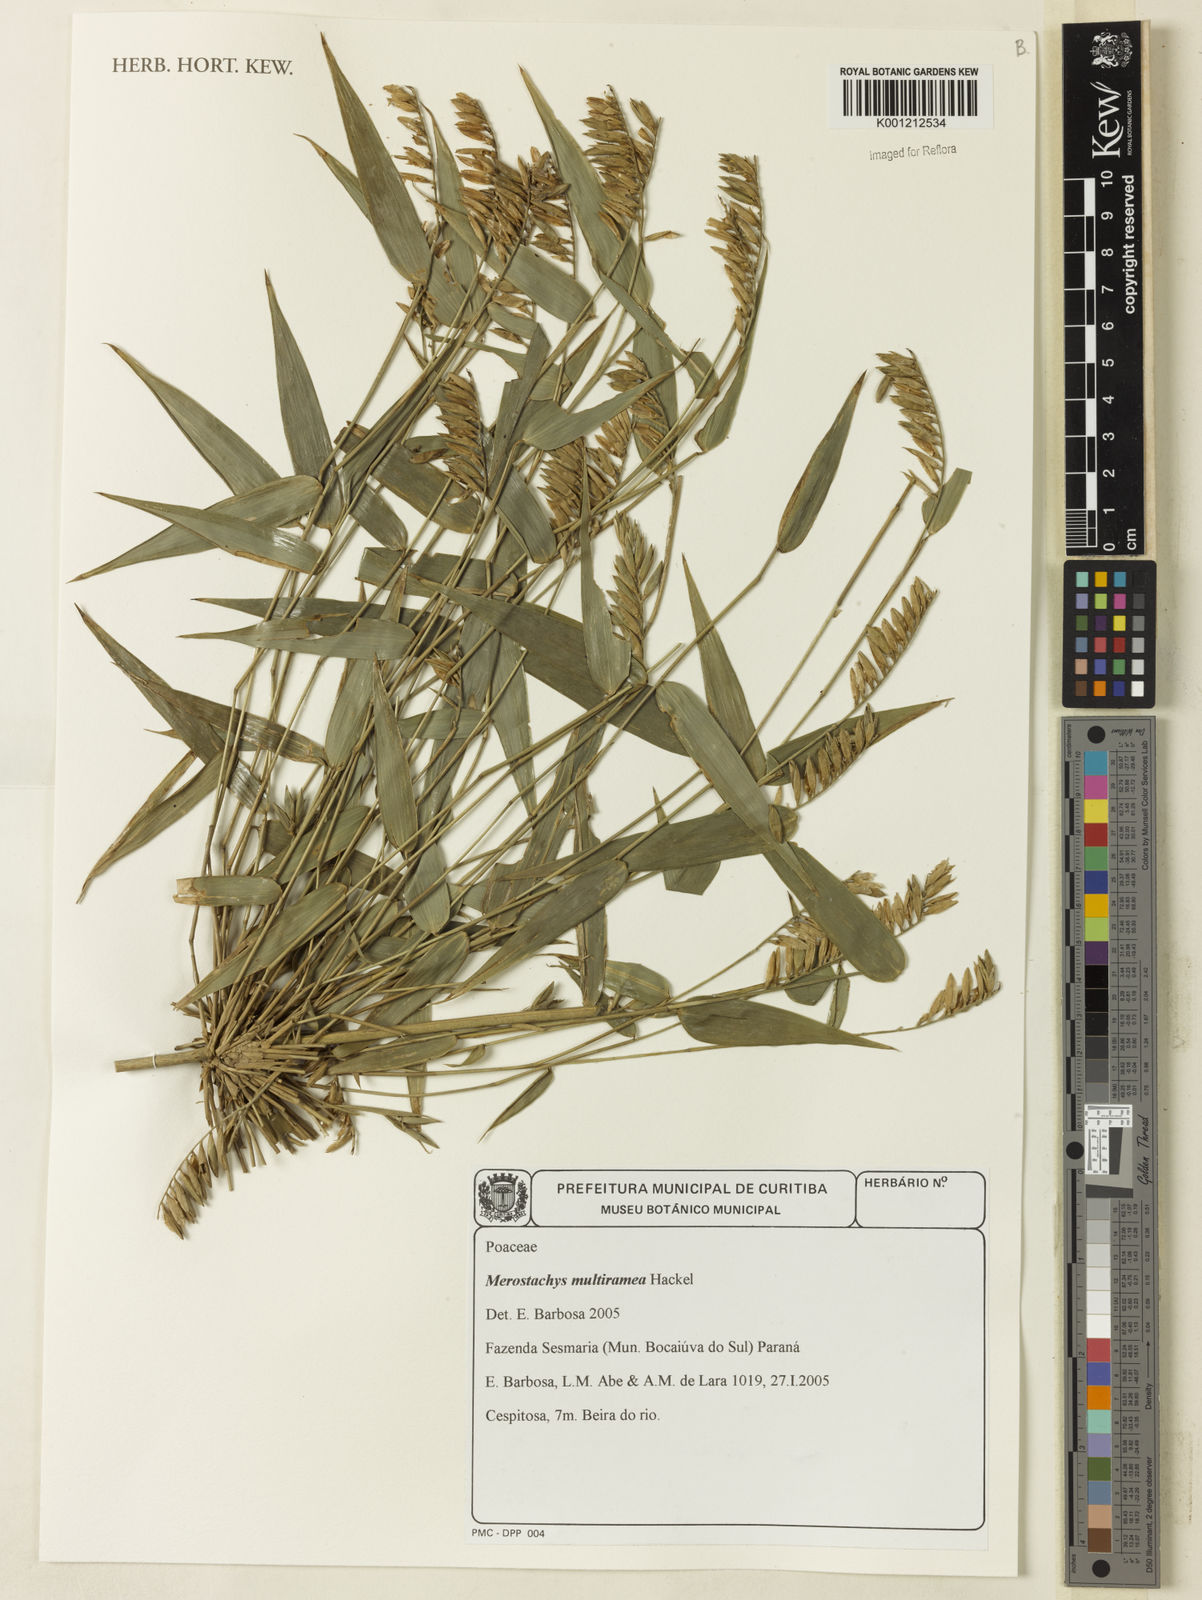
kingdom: Plantae
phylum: Tracheophyta
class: Liliopsida
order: Poales
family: Poaceae
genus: Merostachys
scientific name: Merostachys multiramea
